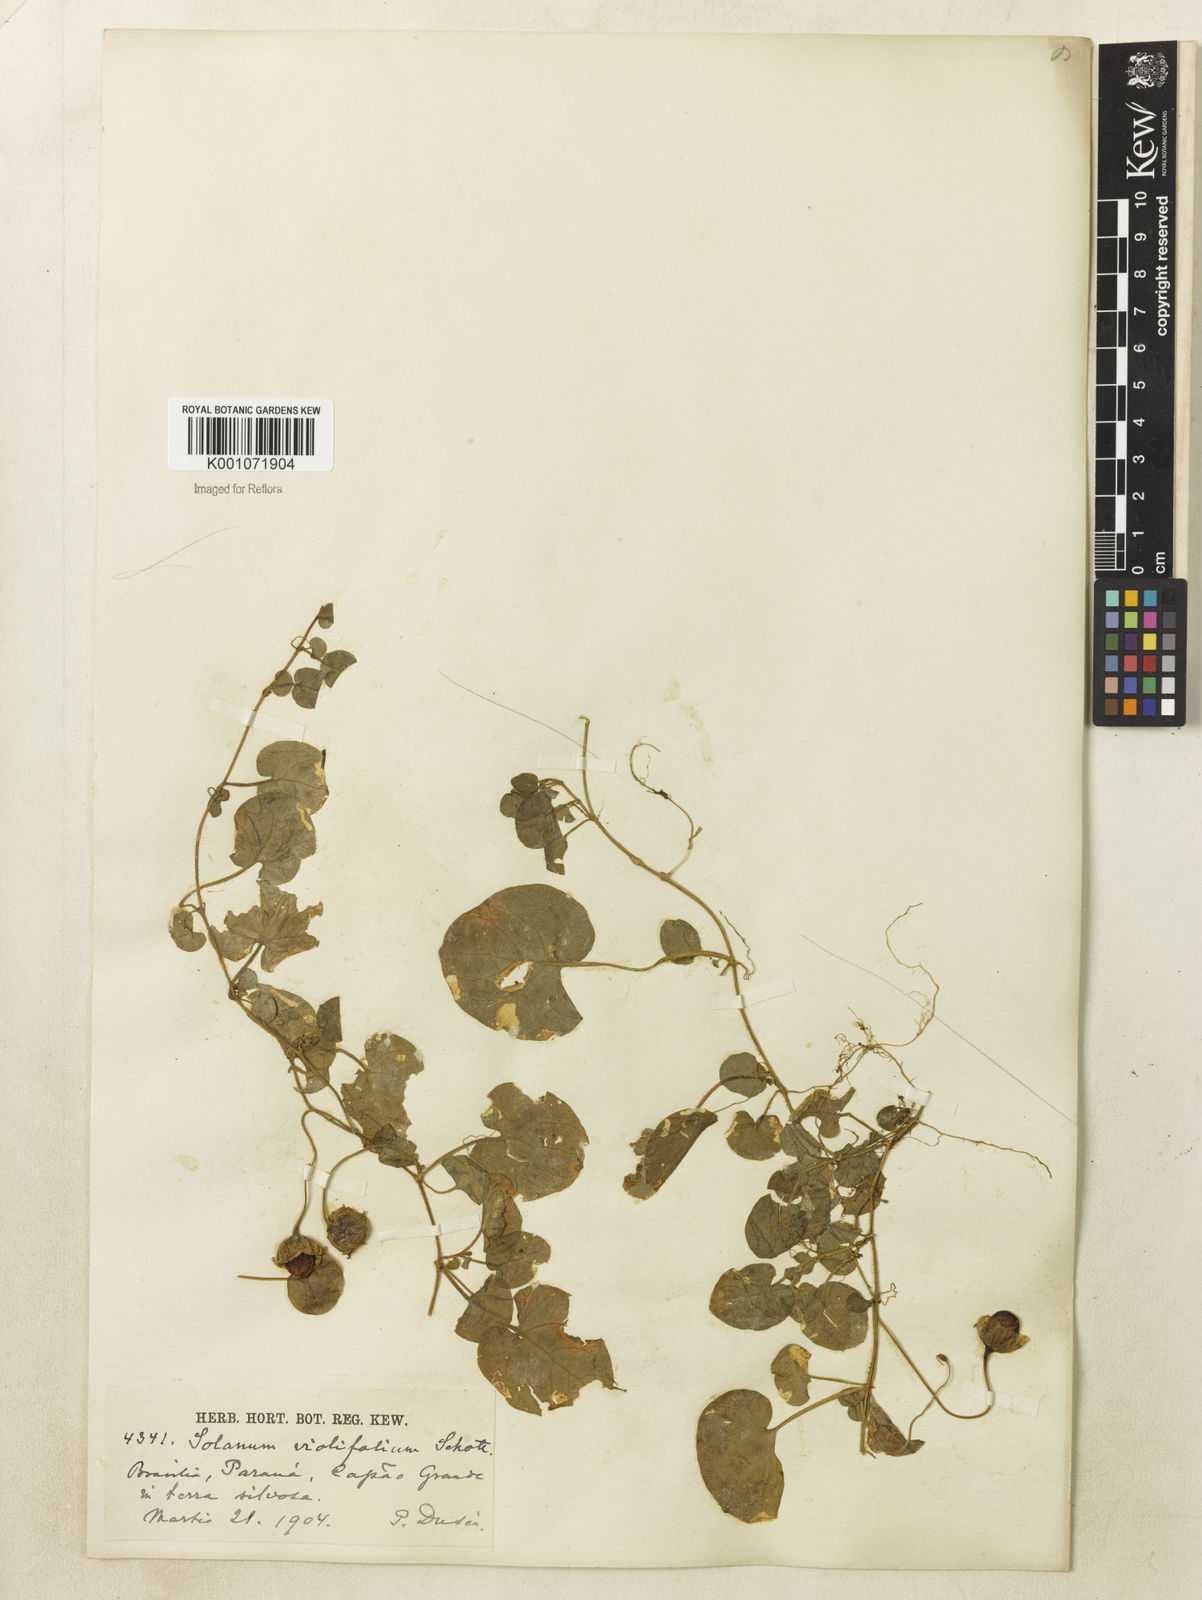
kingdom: Plantae
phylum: Tracheophyta
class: Magnoliopsida
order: Solanales
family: Solanaceae
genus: Lycianthes
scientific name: Lycianthes repens
